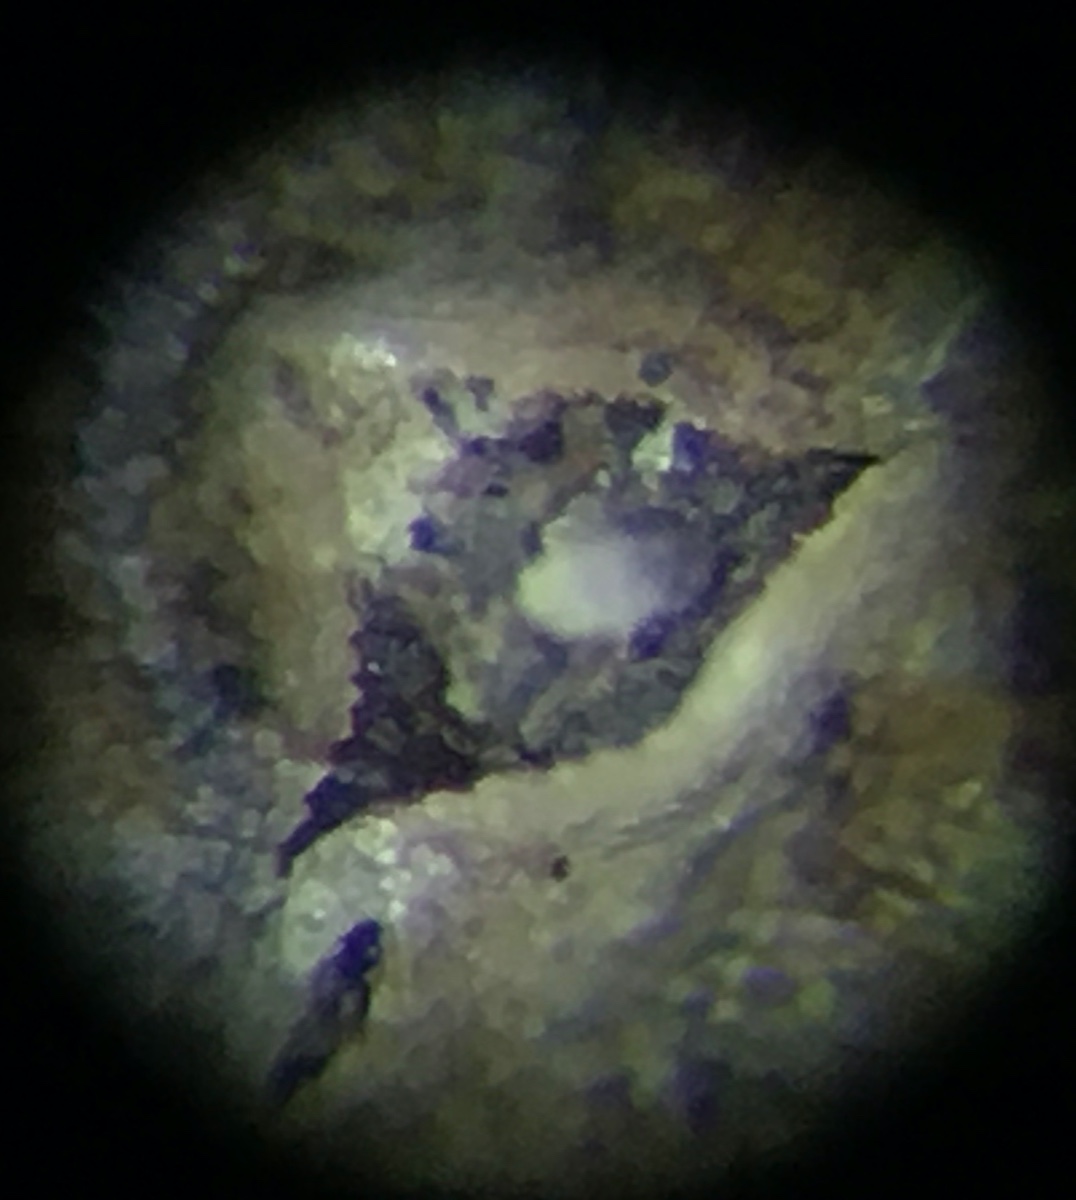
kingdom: Fungi
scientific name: Fungi
